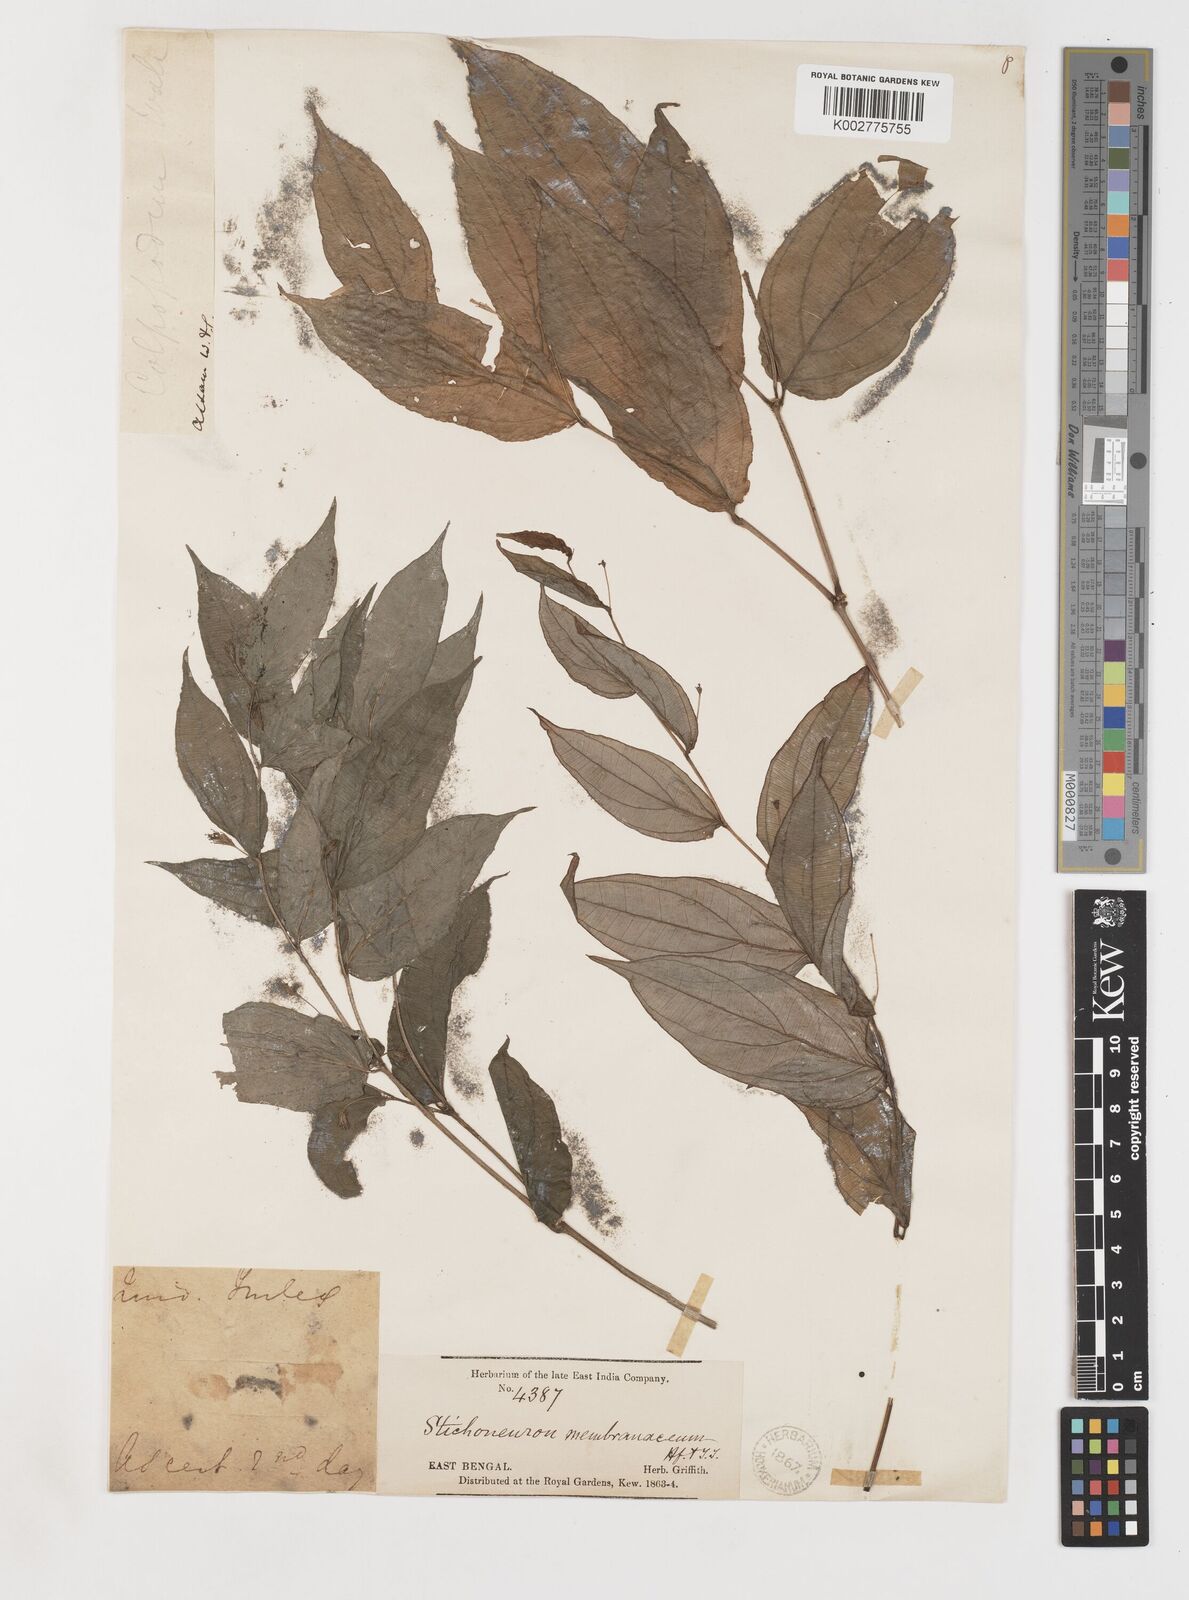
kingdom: Plantae
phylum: Tracheophyta
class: Liliopsida
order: Pandanales
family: Stemonaceae
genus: Stichoneuron
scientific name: Stichoneuron membranaceum
